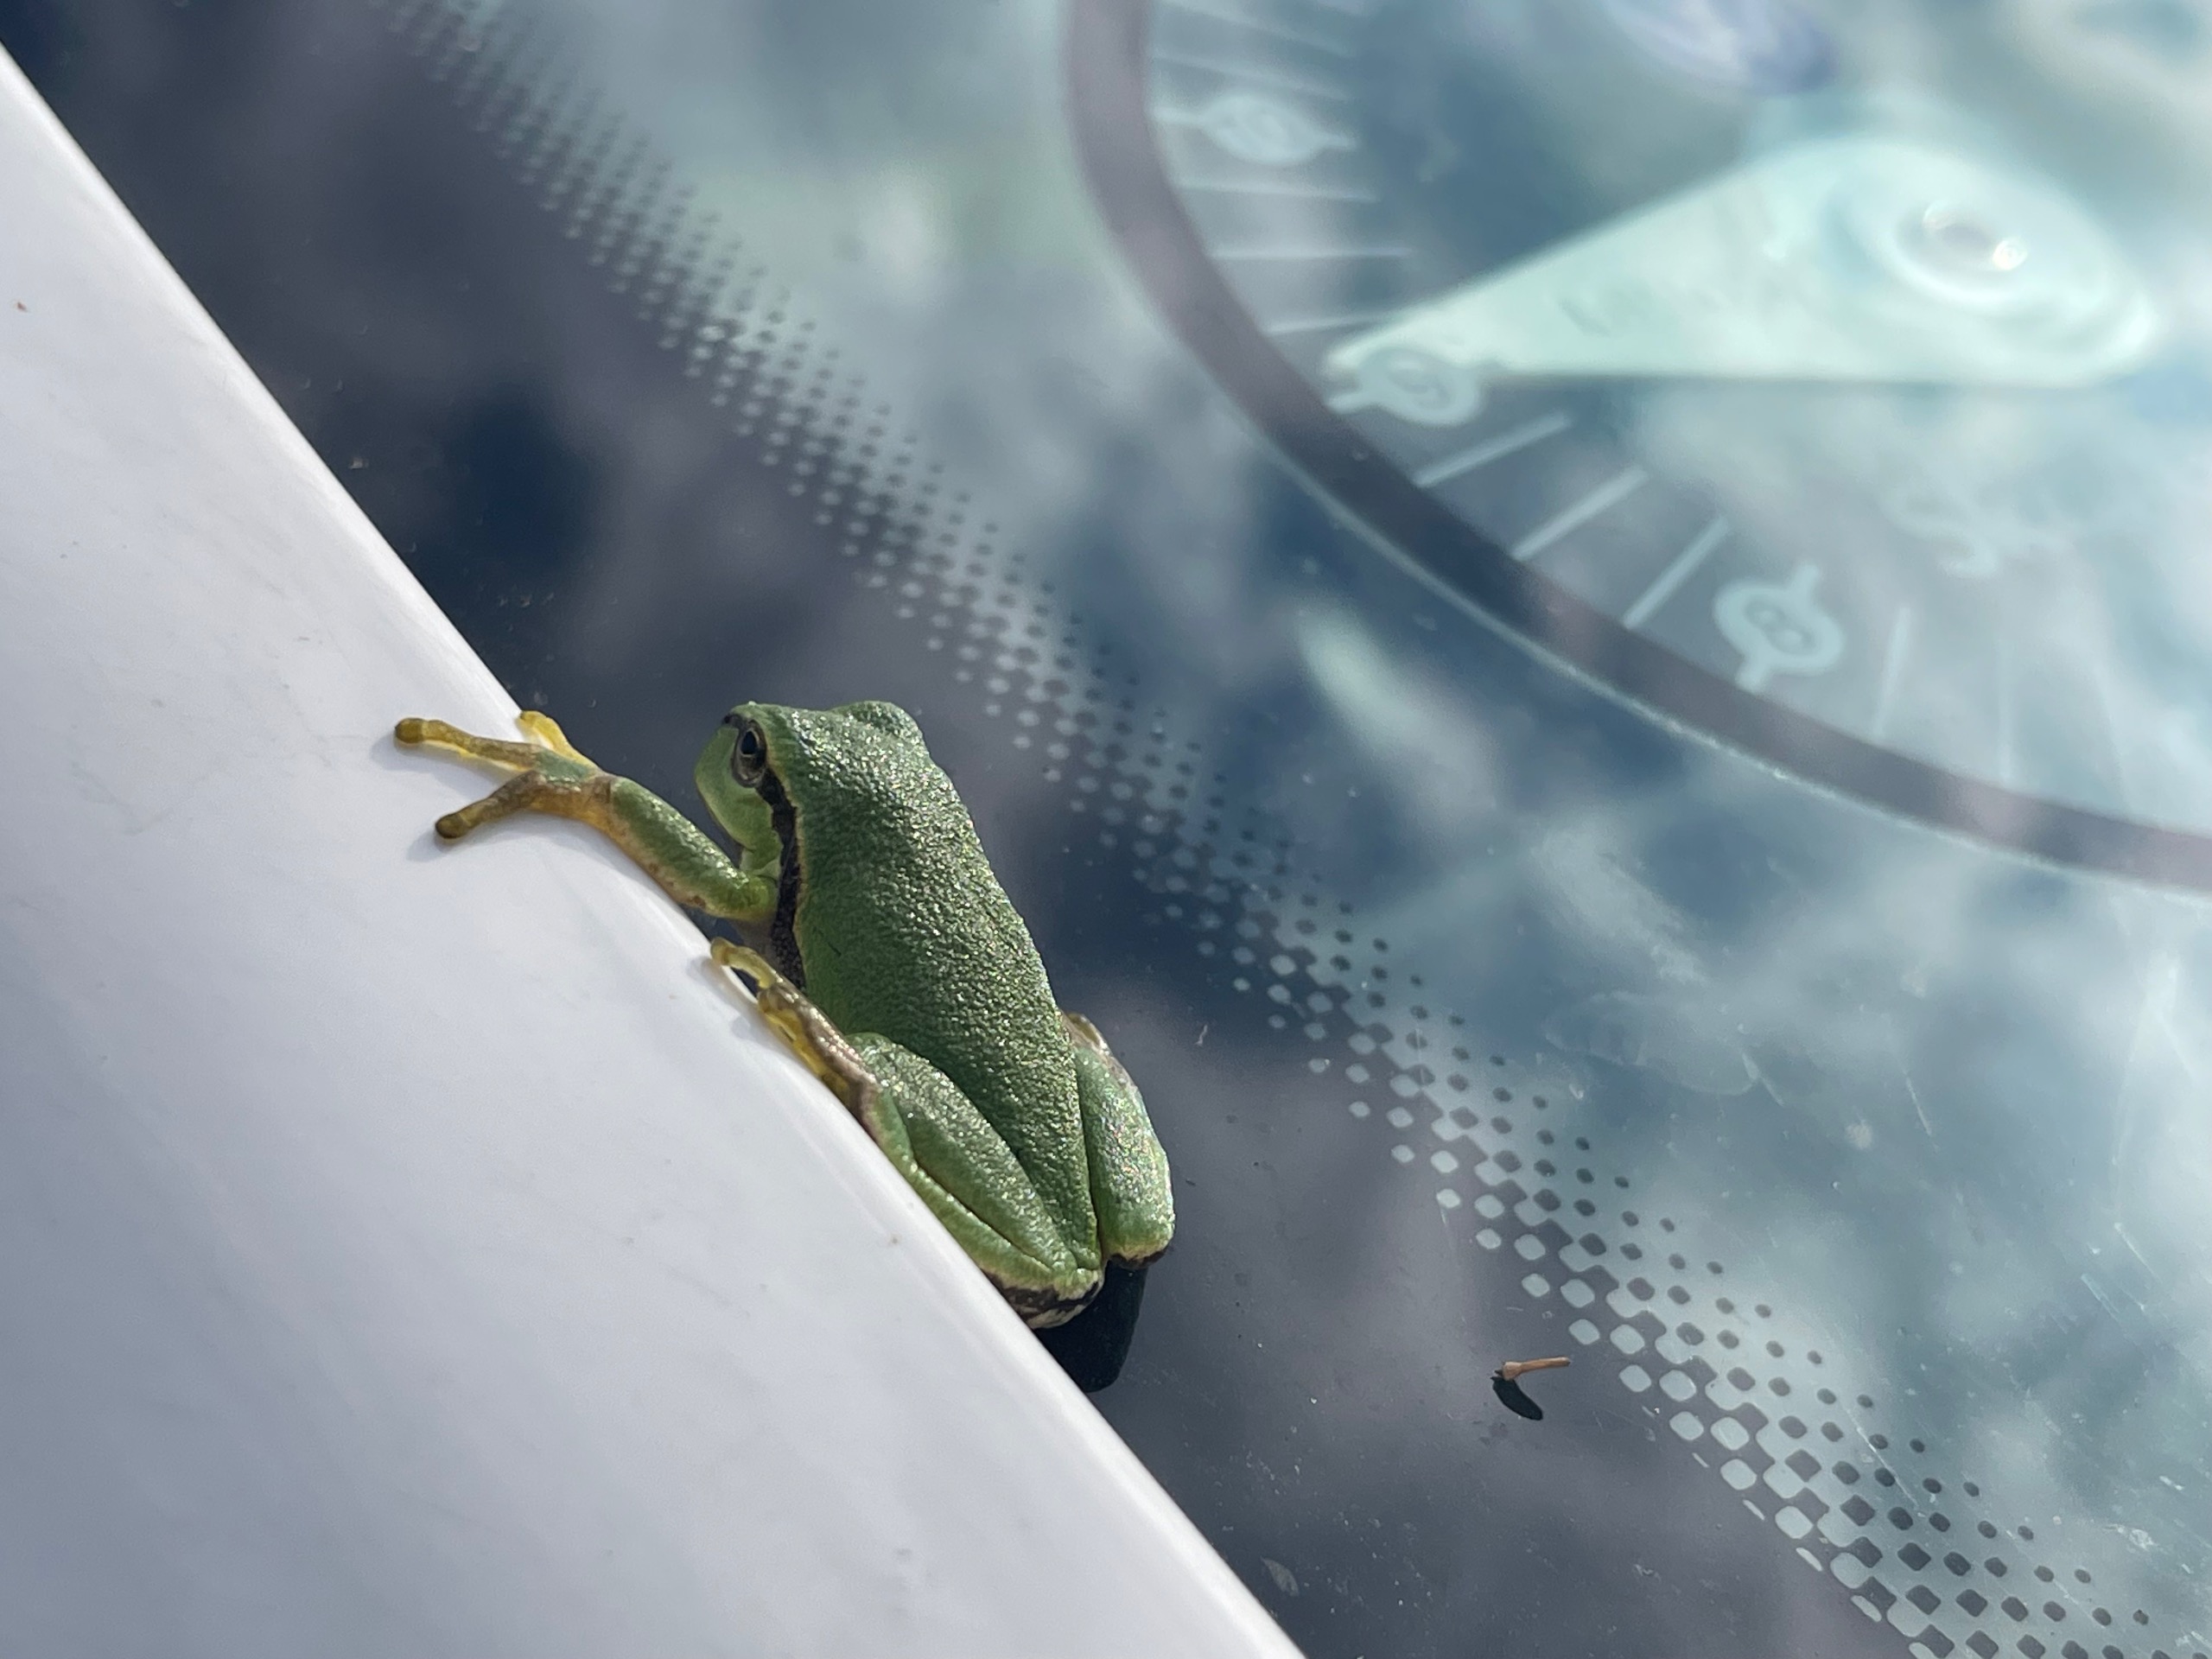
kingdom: Animalia
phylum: Chordata
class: Amphibia
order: Anura
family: Hylidae
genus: Hyla
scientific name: Hyla arborea
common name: Løvfrø
